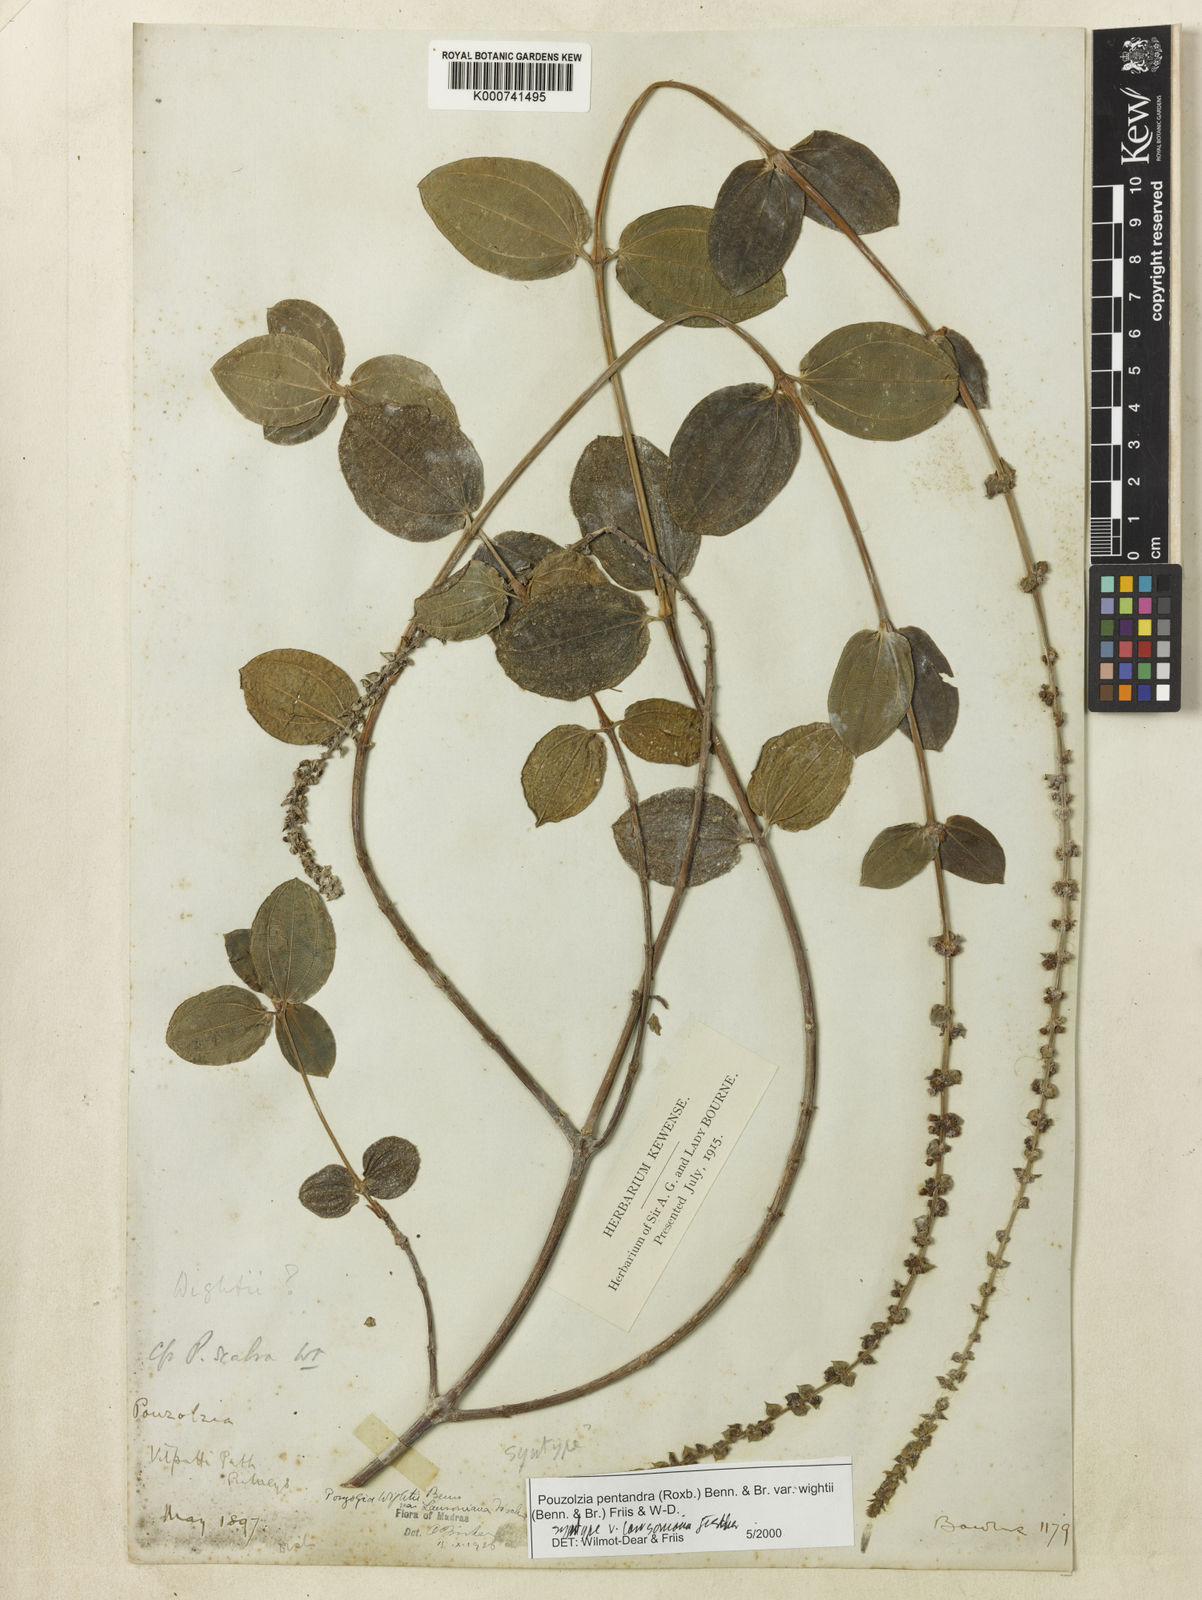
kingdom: Plantae
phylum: Tracheophyta
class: Magnoliopsida
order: Rosales
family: Urticaceae
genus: Gonostegia
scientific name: Gonostegia pentandra
